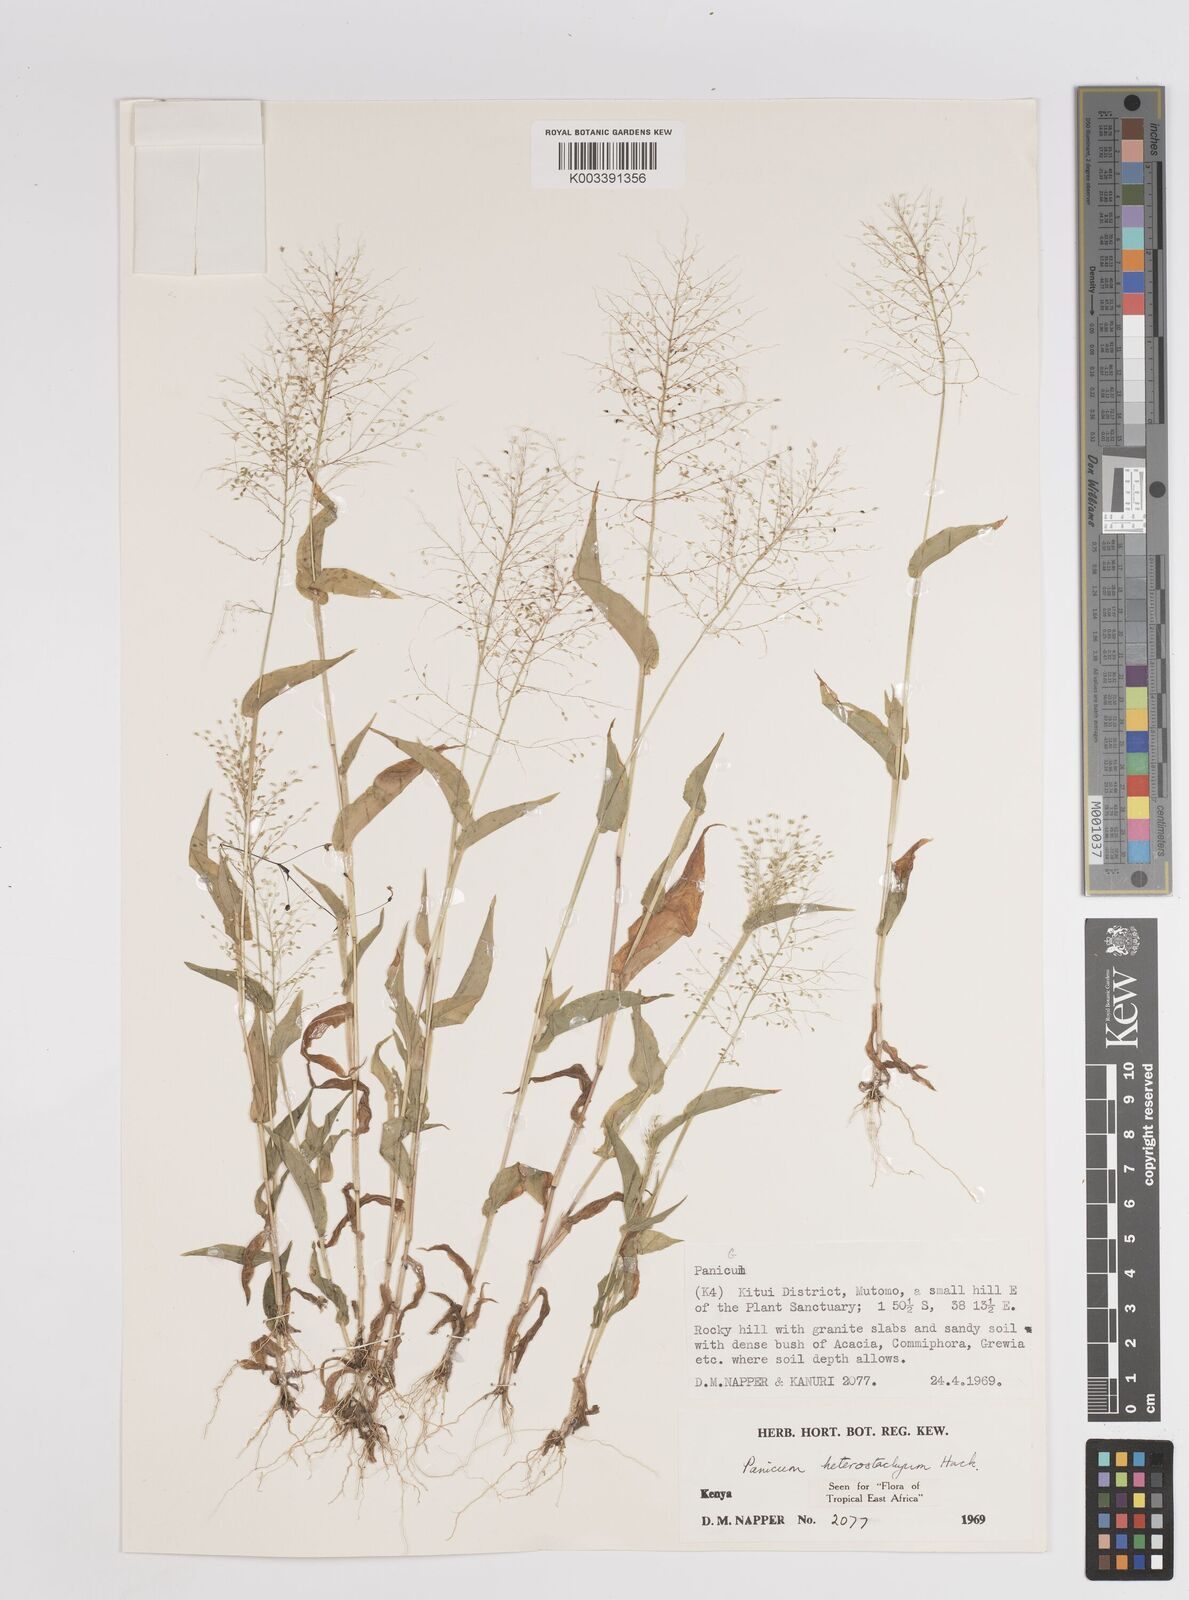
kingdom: Plantae
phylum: Tracheophyta
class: Liliopsida
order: Poales
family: Poaceae
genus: Panicum
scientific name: Panicum hirtum
